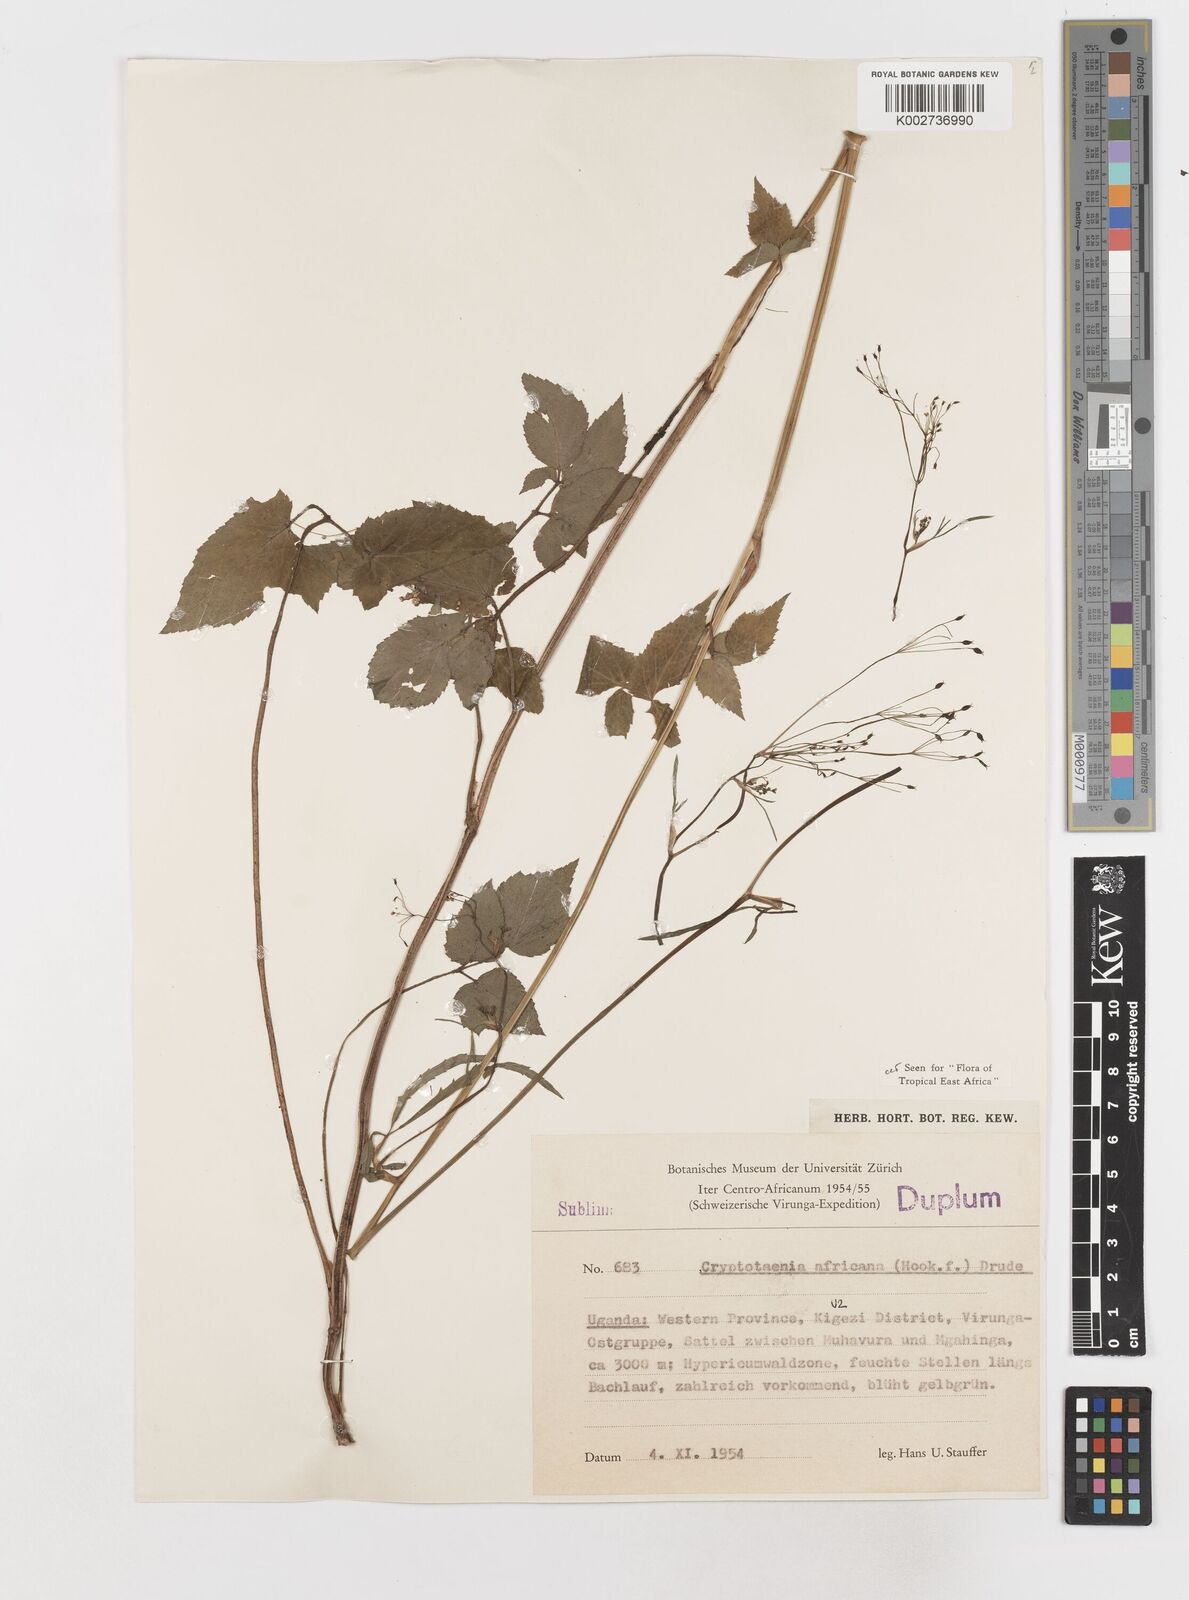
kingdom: Plantae
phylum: Tracheophyta
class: Magnoliopsida
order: Apiales
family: Apiaceae
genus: Cryptotaenia
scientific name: Cryptotaenia africana
